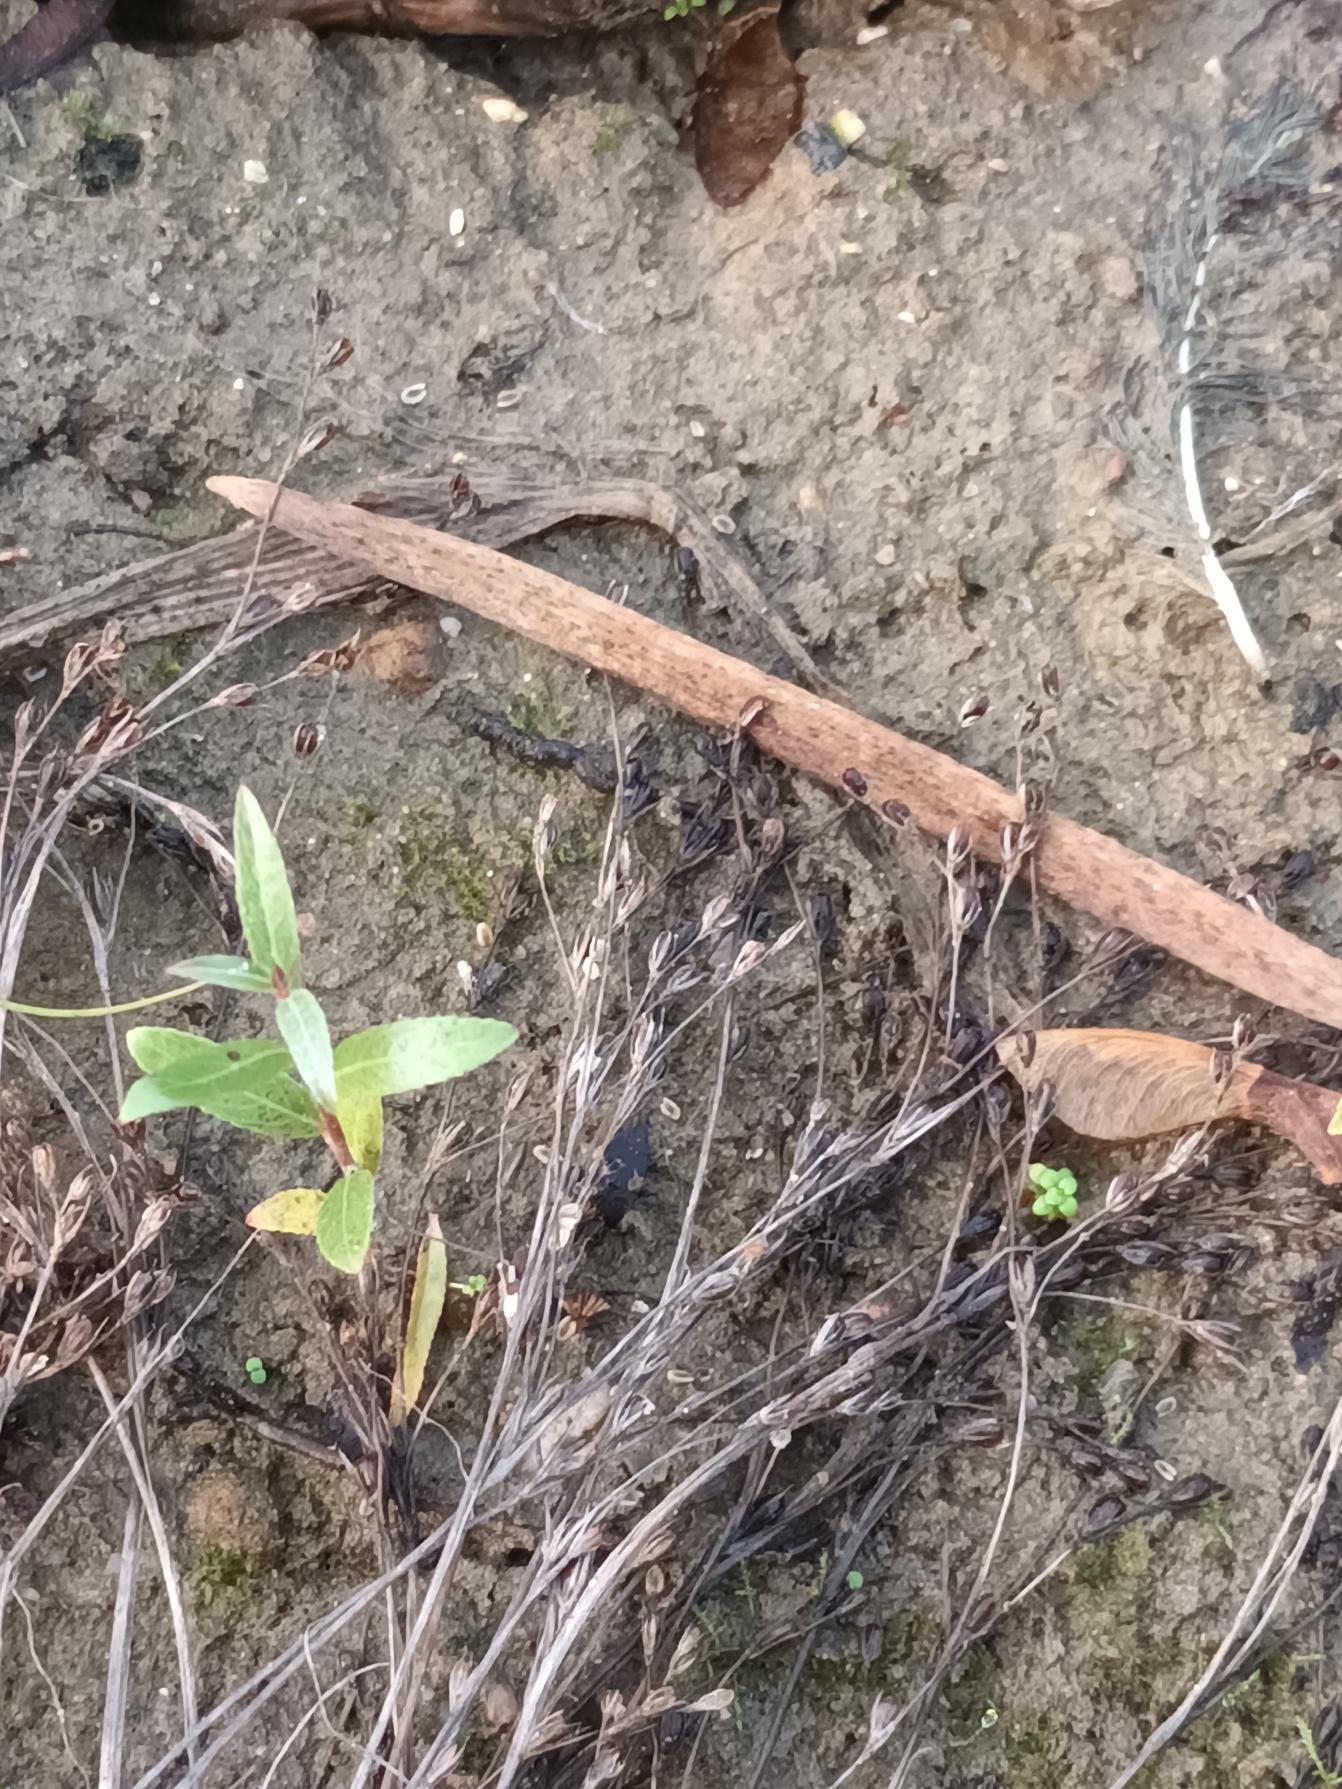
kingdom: Plantae
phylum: Tracheophyta
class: Liliopsida
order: Poales
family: Juncaceae
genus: Juncus
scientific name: Juncus bufonius
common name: Tudse-siv
